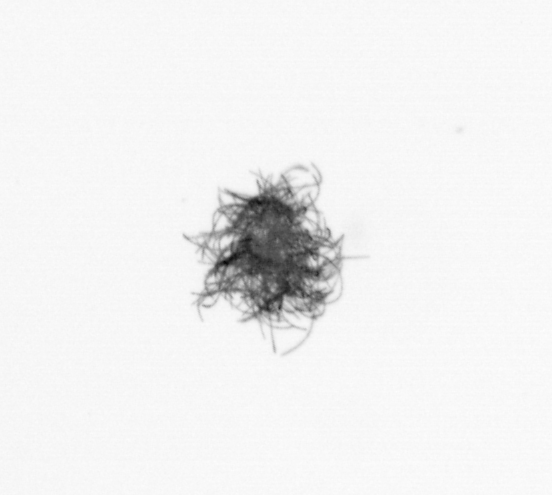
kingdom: Bacteria
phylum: Cyanobacteria
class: Cyanobacteriia
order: Cyanobacteriales
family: Microcoleaceae
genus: Trichodesmium
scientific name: Trichodesmium
